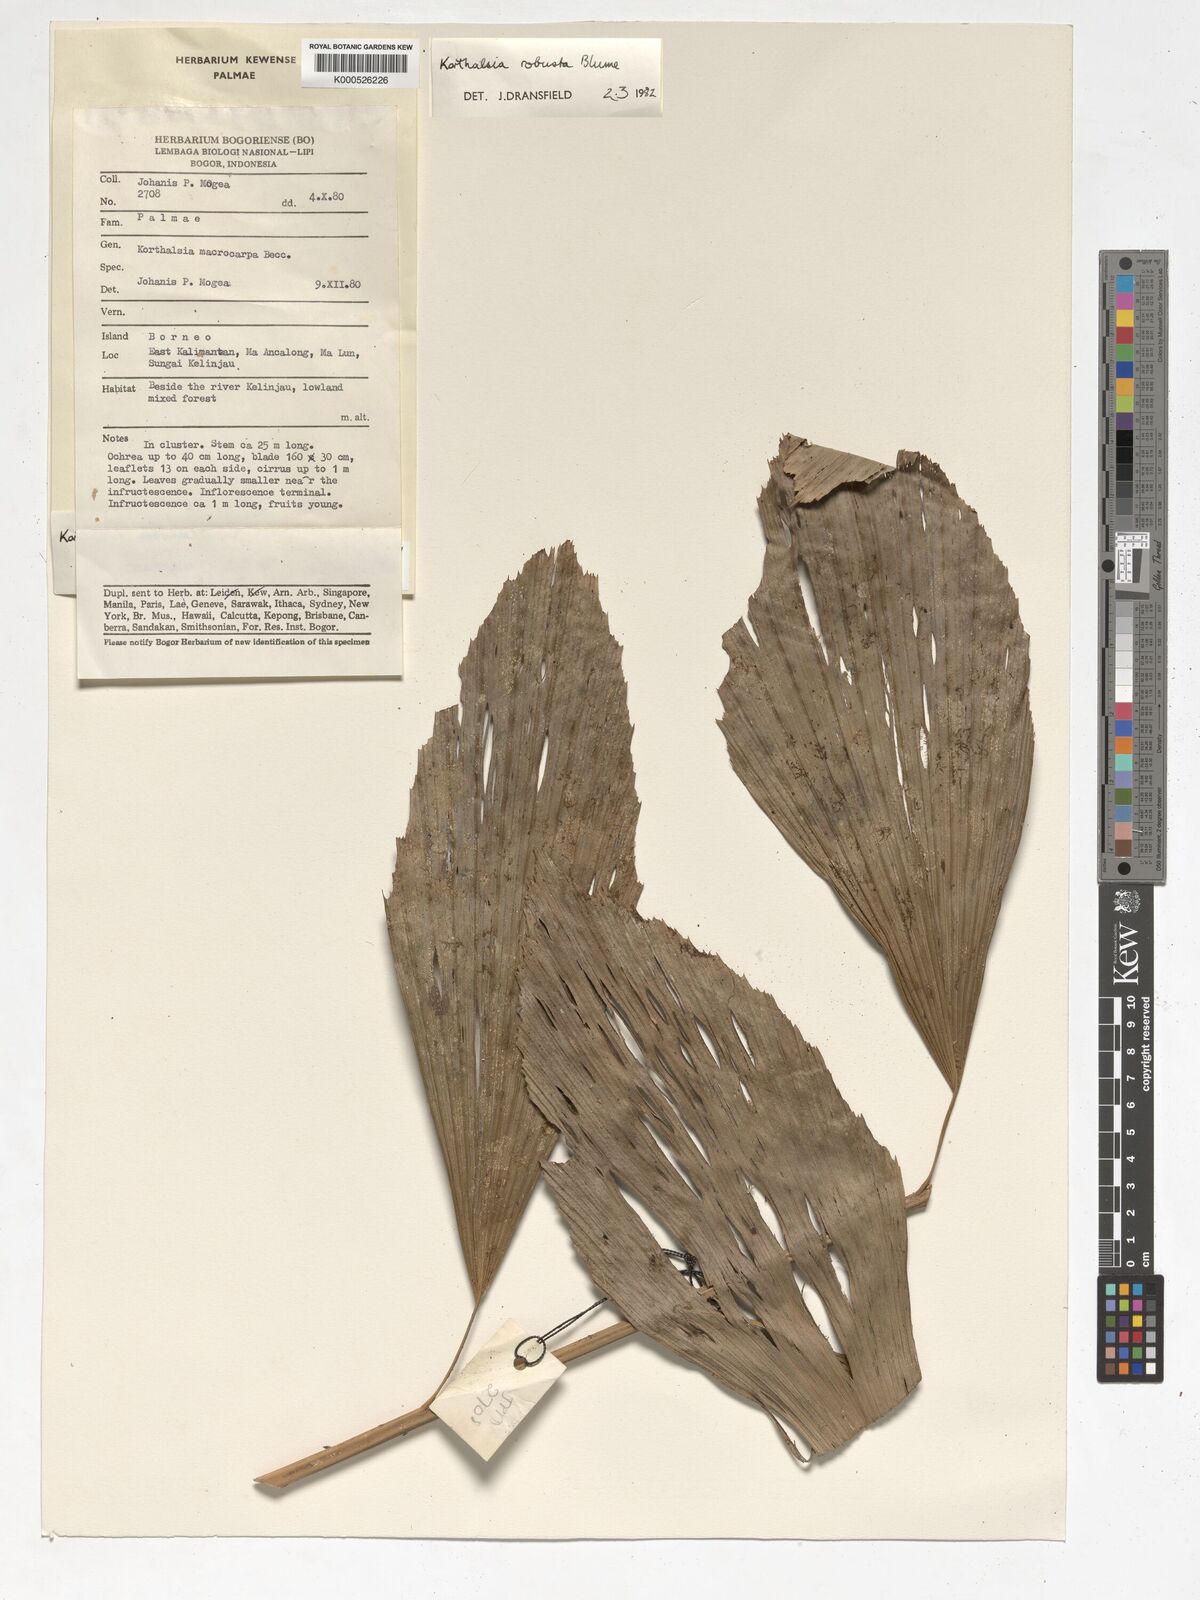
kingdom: Plantae
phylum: Tracheophyta
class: Liliopsida
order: Arecales
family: Arecaceae
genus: Korthalsia
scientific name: Korthalsia robusta
